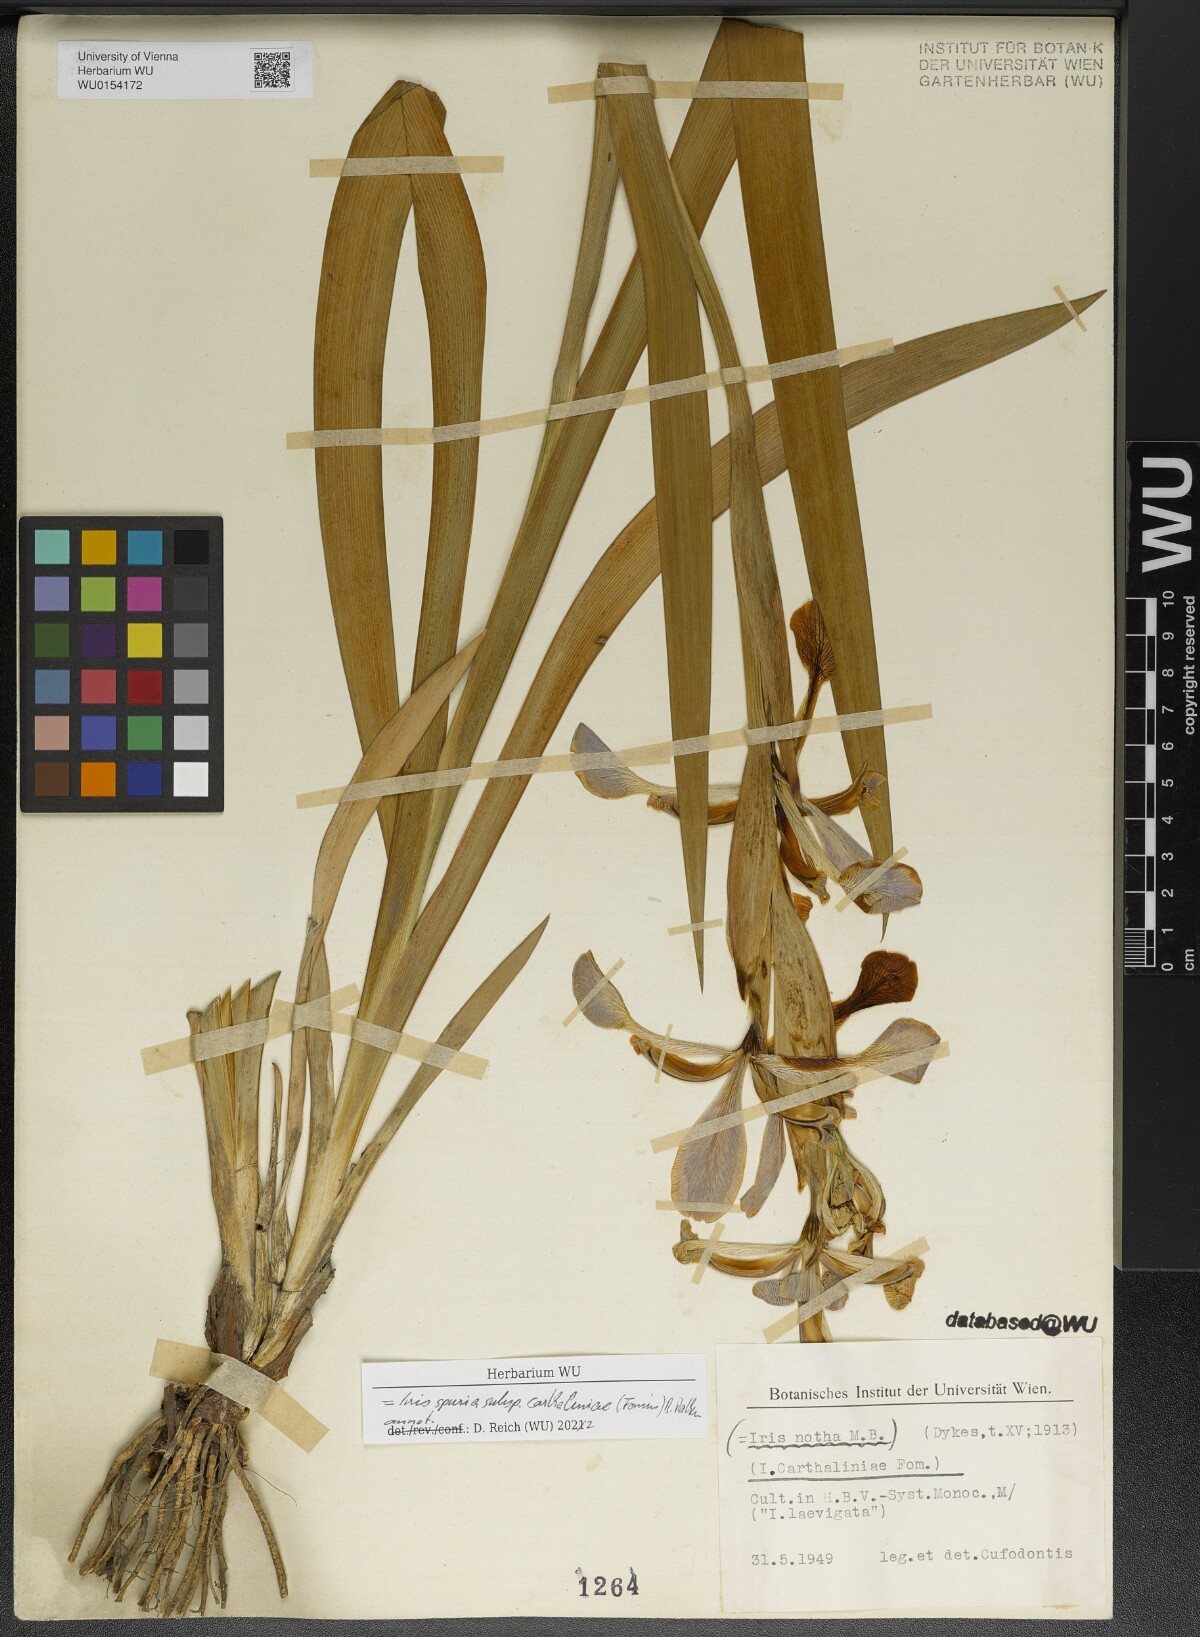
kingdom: Plantae
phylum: Tracheophyta
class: Liliopsida
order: Asparagales
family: Iridaceae
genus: Iris
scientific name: Iris spuria
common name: Blue iris
